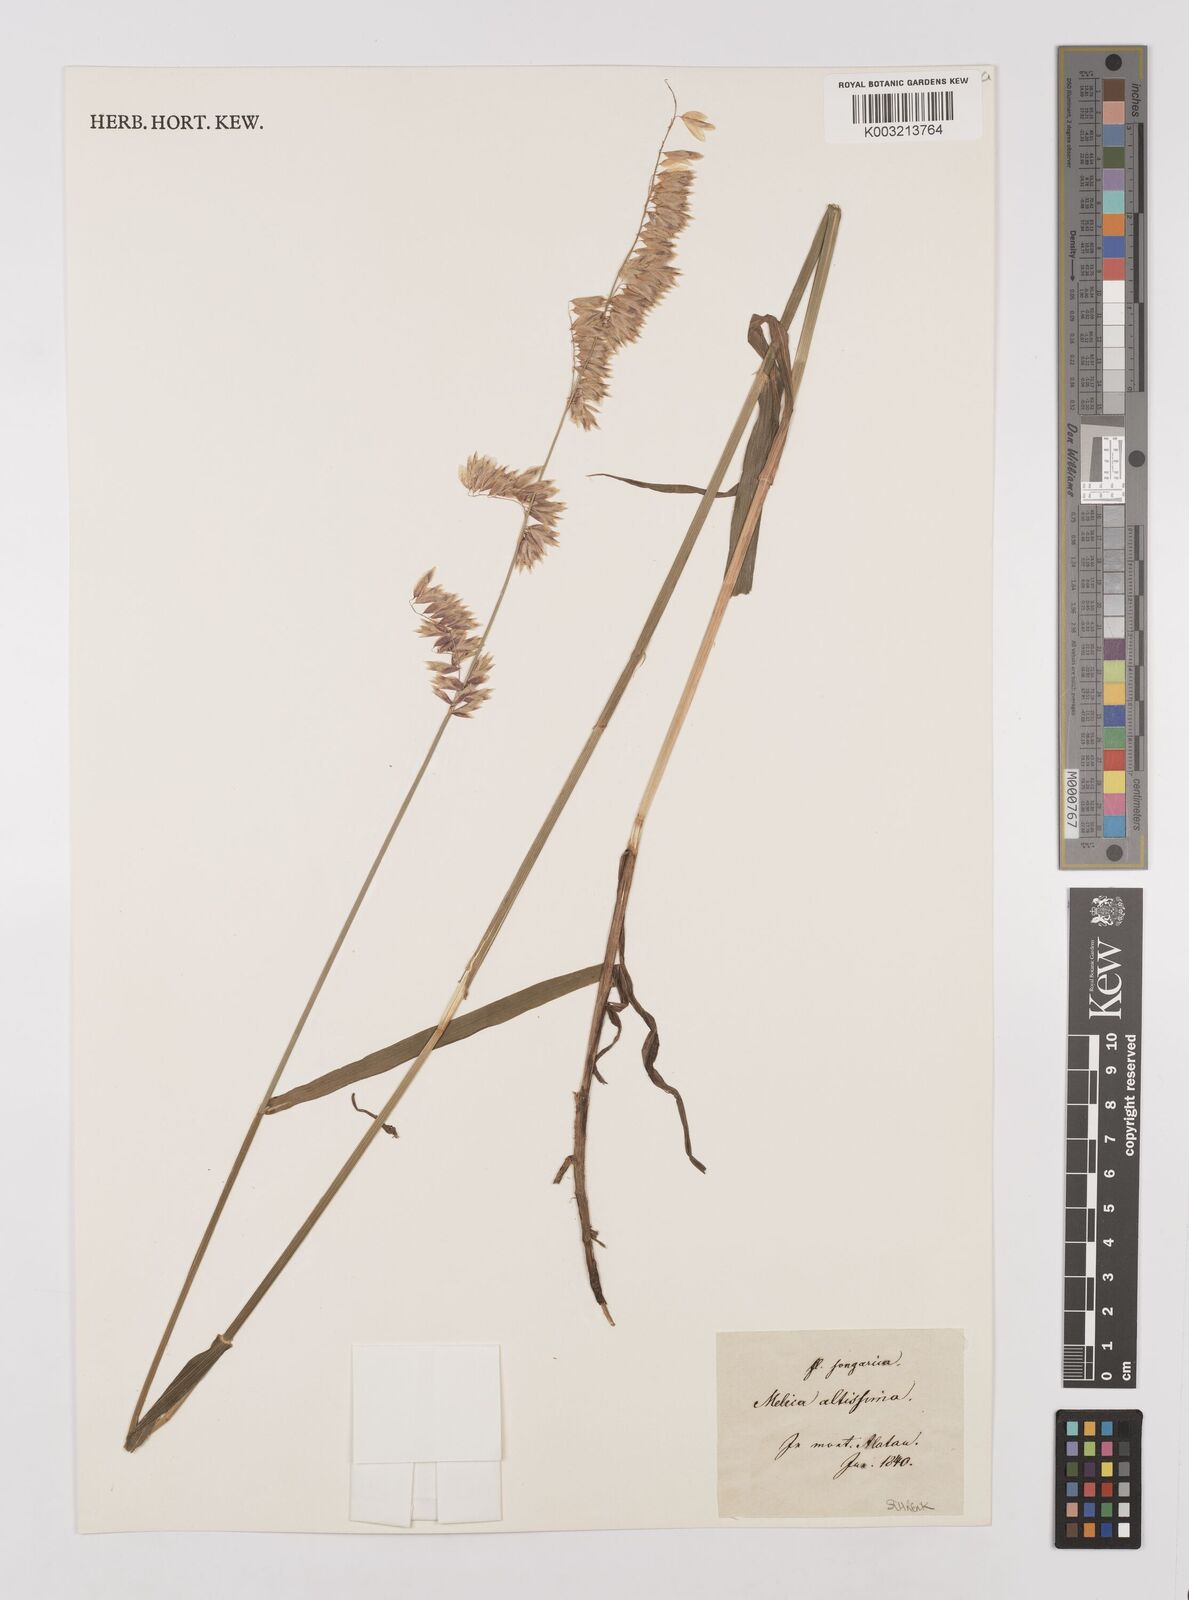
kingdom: Plantae
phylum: Tracheophyta
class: Liliopsida
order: Poales
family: Poaceae
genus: Melica
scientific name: Melica
